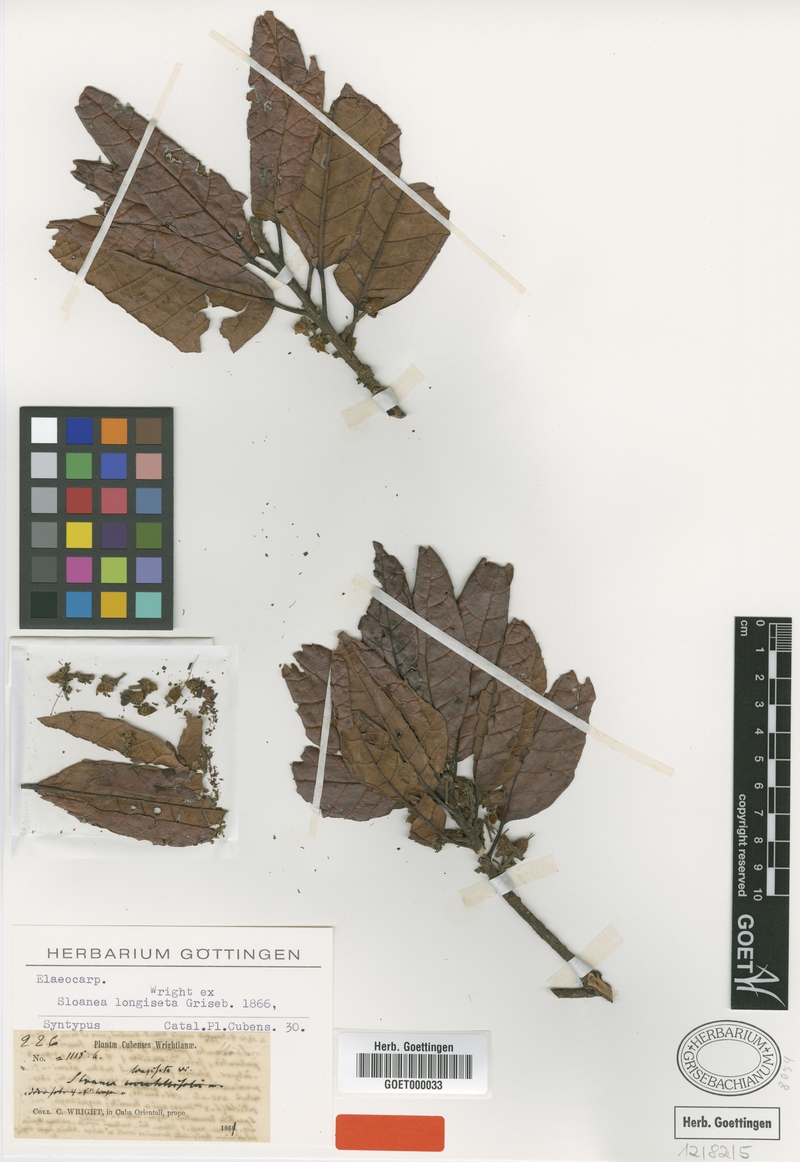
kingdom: Plantae
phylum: Tracheophyta
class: Magnoliopsida
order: Oxalidales
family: Elaeocarpaceae
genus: Sloanea
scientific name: Sloanea curatellifolia
